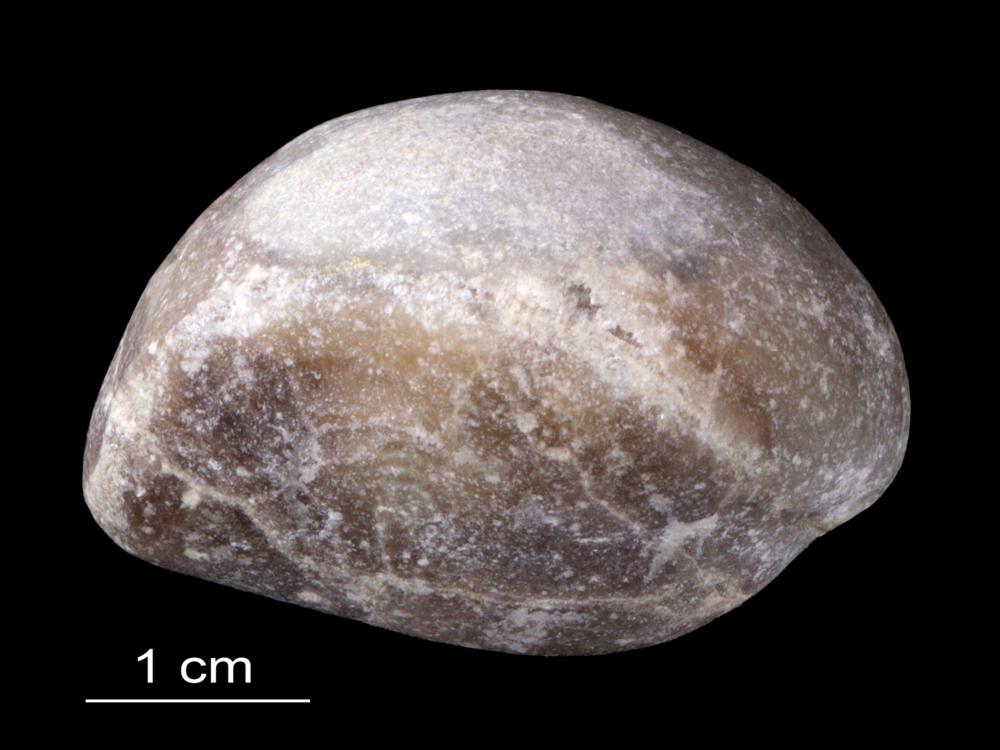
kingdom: Animalia
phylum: Brachiopoda
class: Rhynchonellata
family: Carinatinidae
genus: Spirigerina
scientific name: Spirigerina
